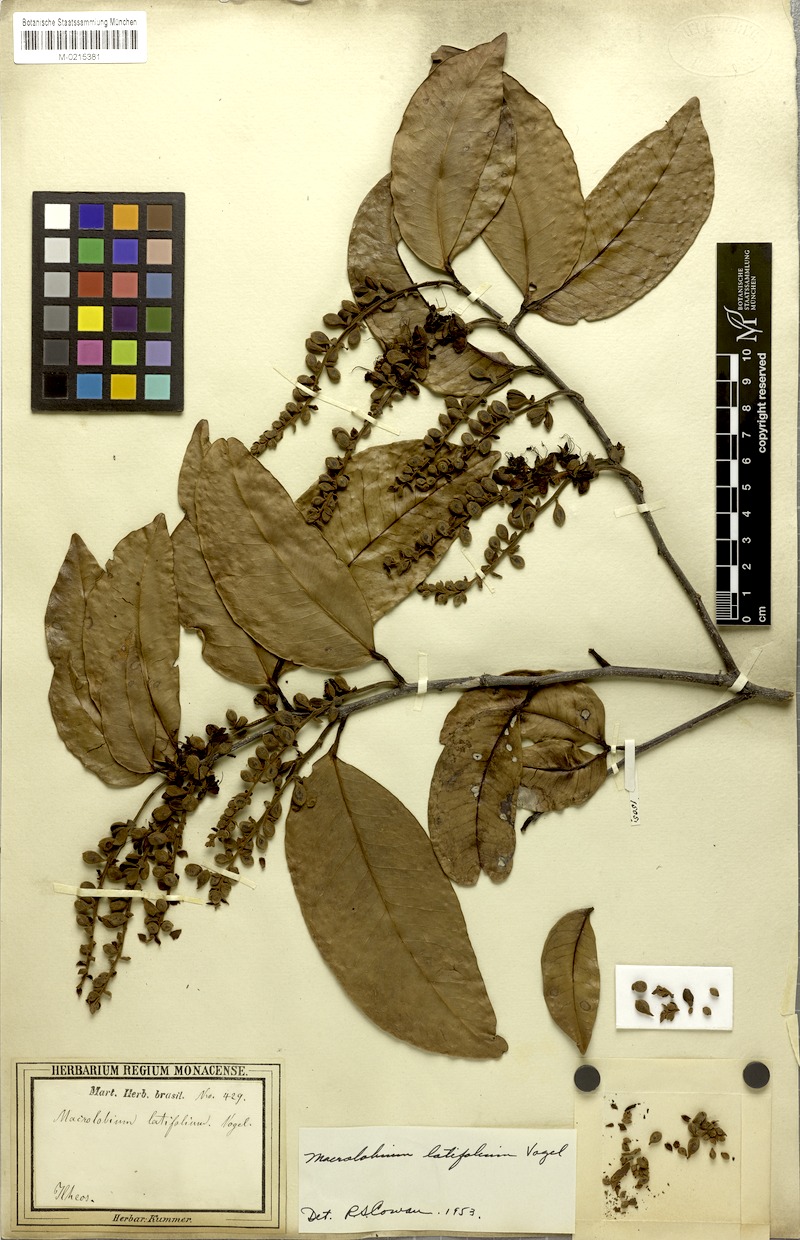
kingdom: Plantae
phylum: Tracheophyta
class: Magnoliopsida
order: Fabales
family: Fabaceae
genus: Macrolobium
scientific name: Macrolobium latifolium
